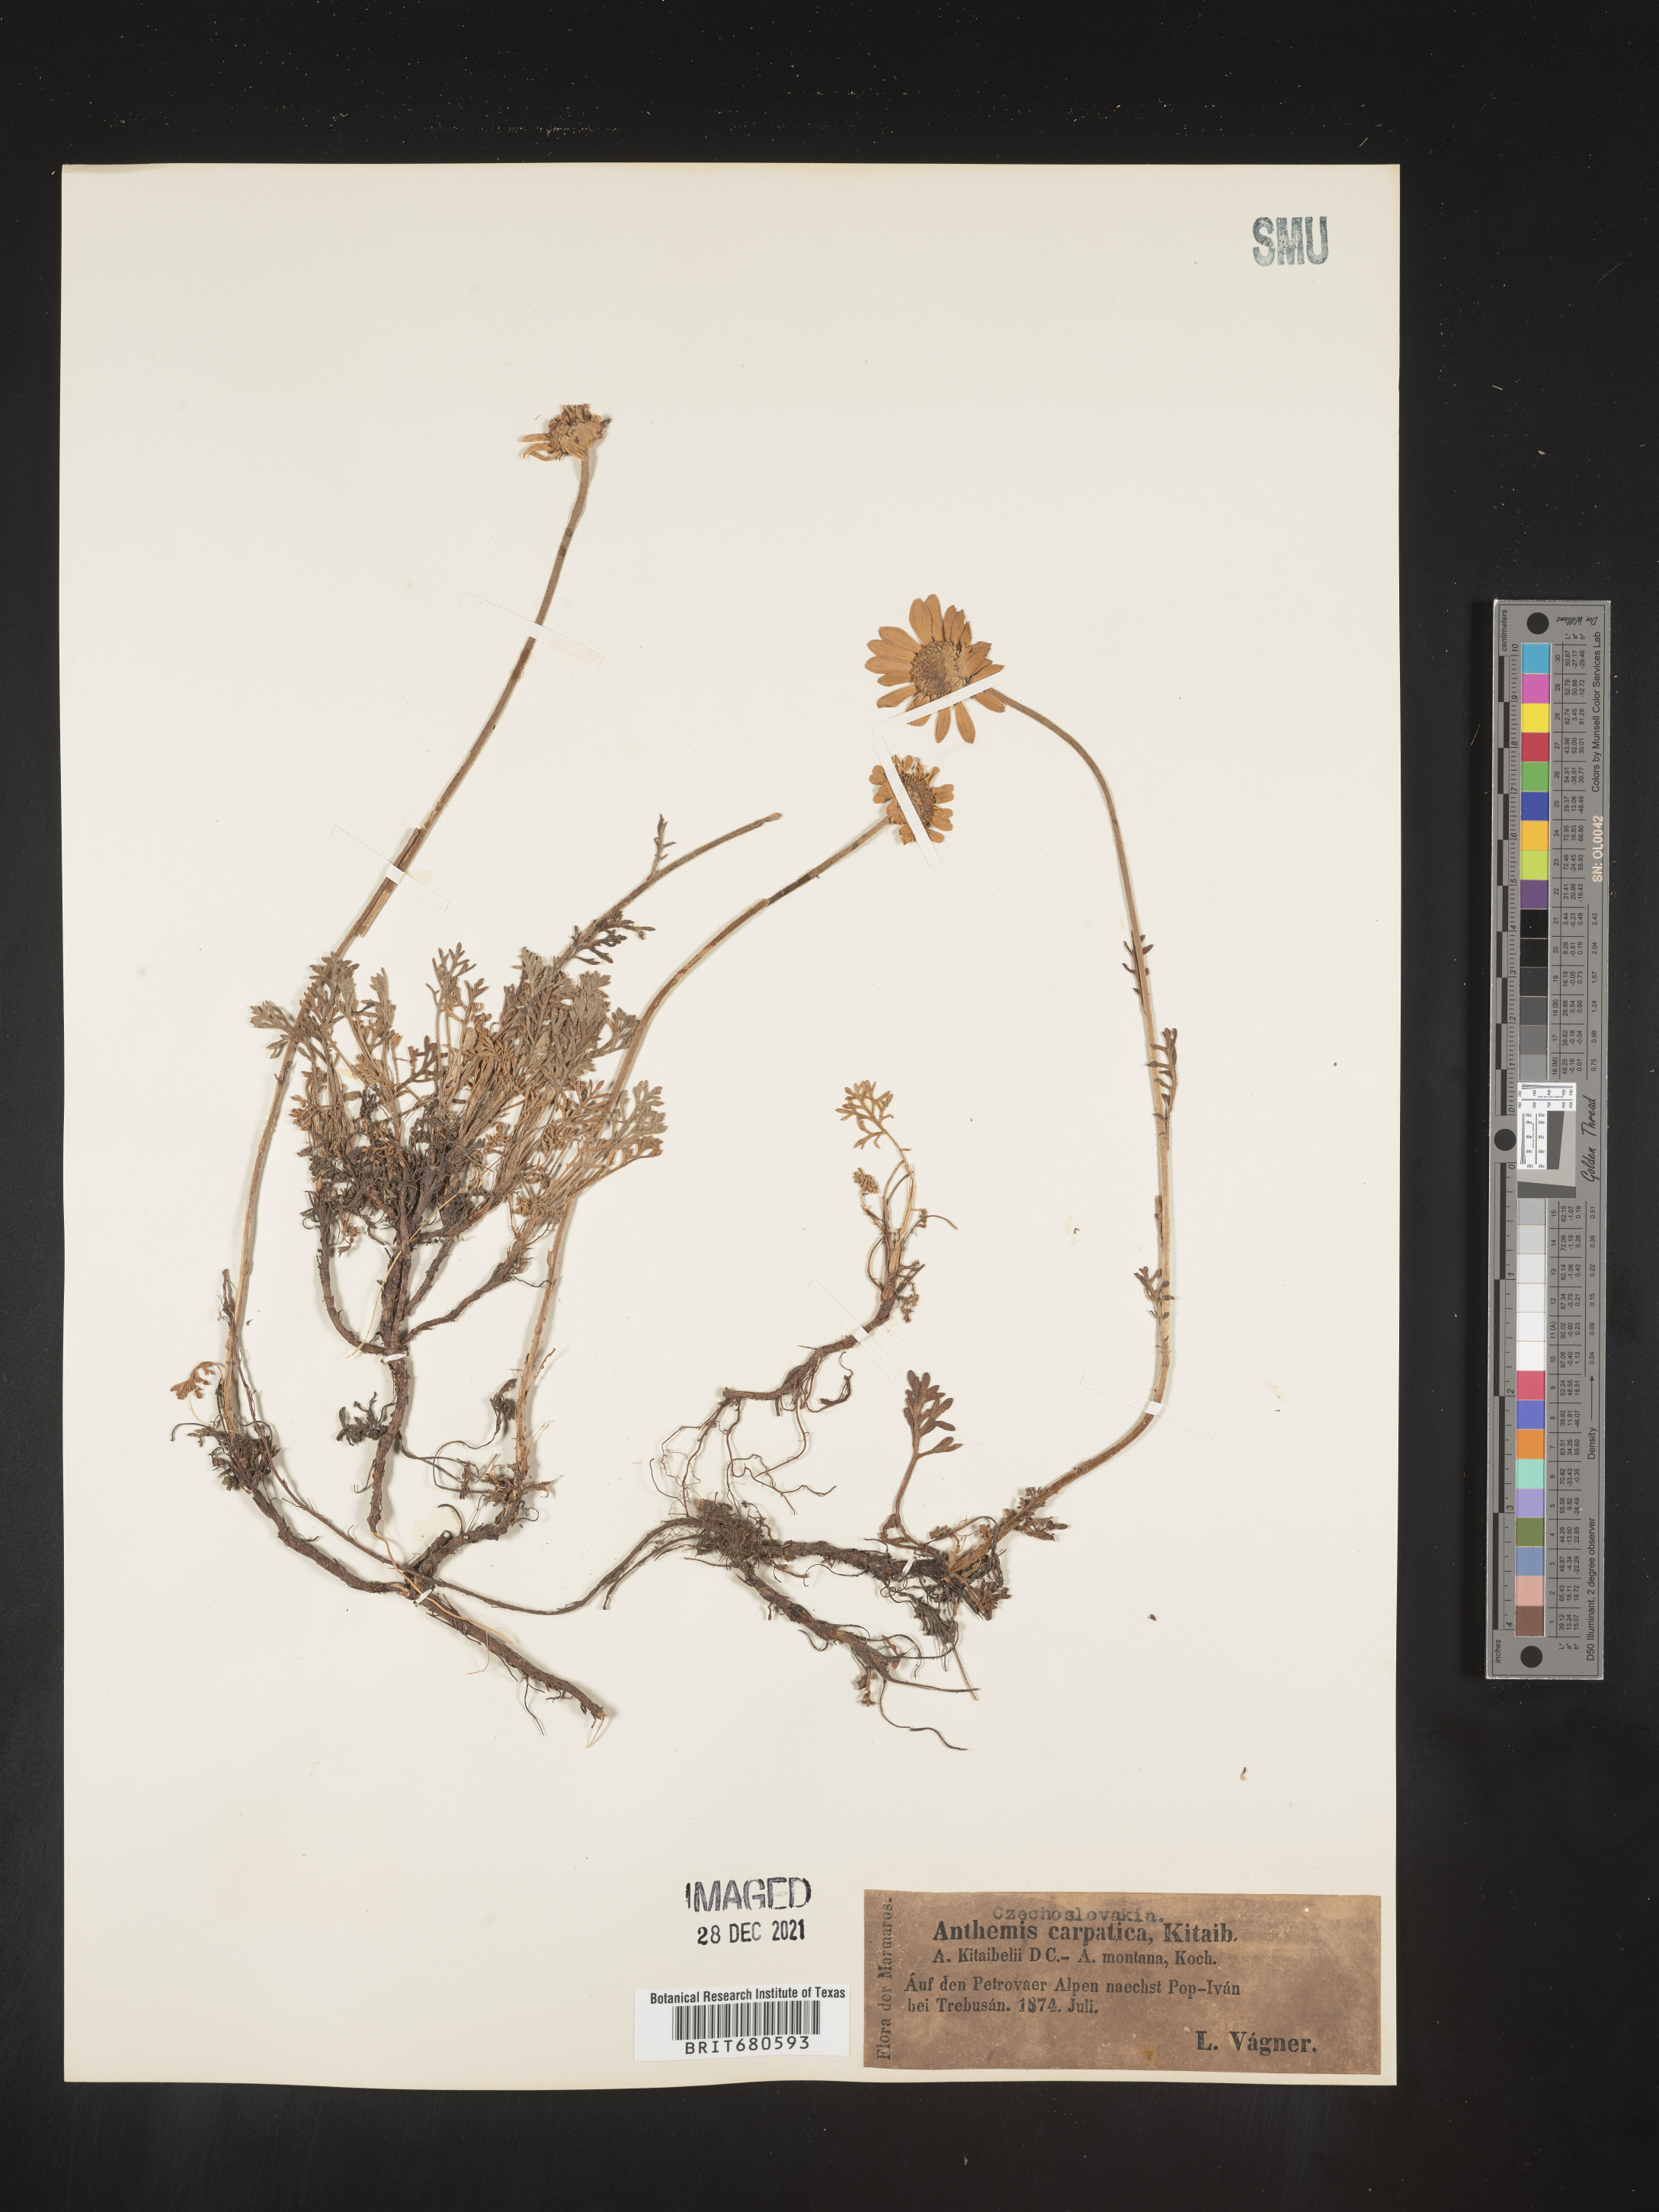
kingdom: Plantae
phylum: Tracheophyta
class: Magnoliopsida
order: Asterales
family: Asteraceae
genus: Anthemis
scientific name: Anthemis
